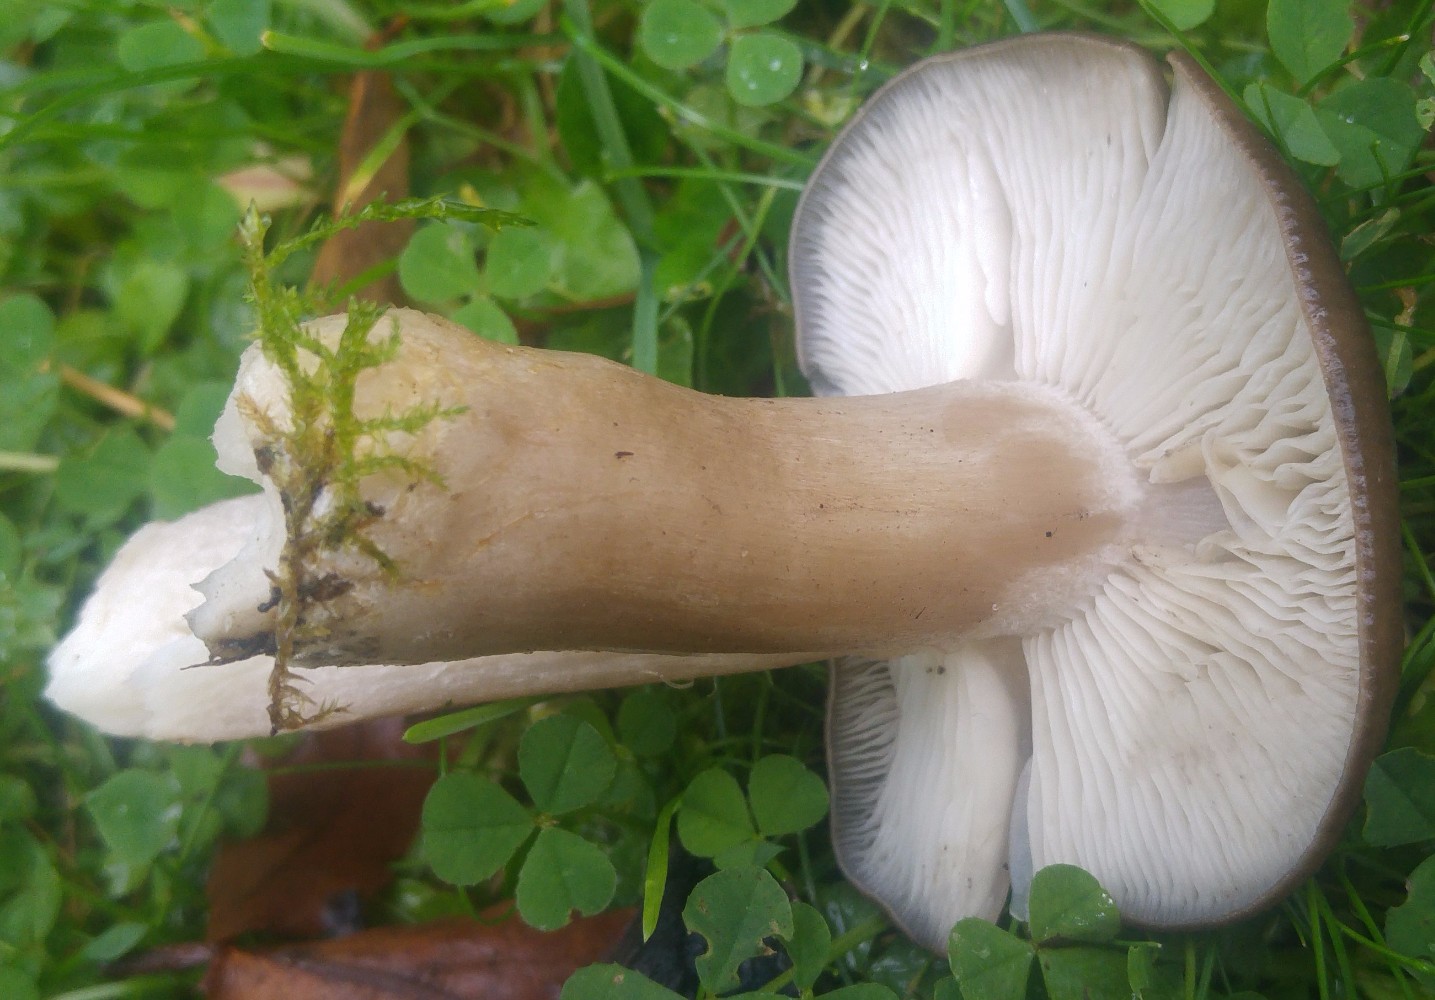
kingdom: Fungi
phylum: Basidiomycota
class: Agaricomycetes
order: Agaricales
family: Lyophyllaceae
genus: Lyophyllum
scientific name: Lyophyllum decastes
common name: Clustered domecap
